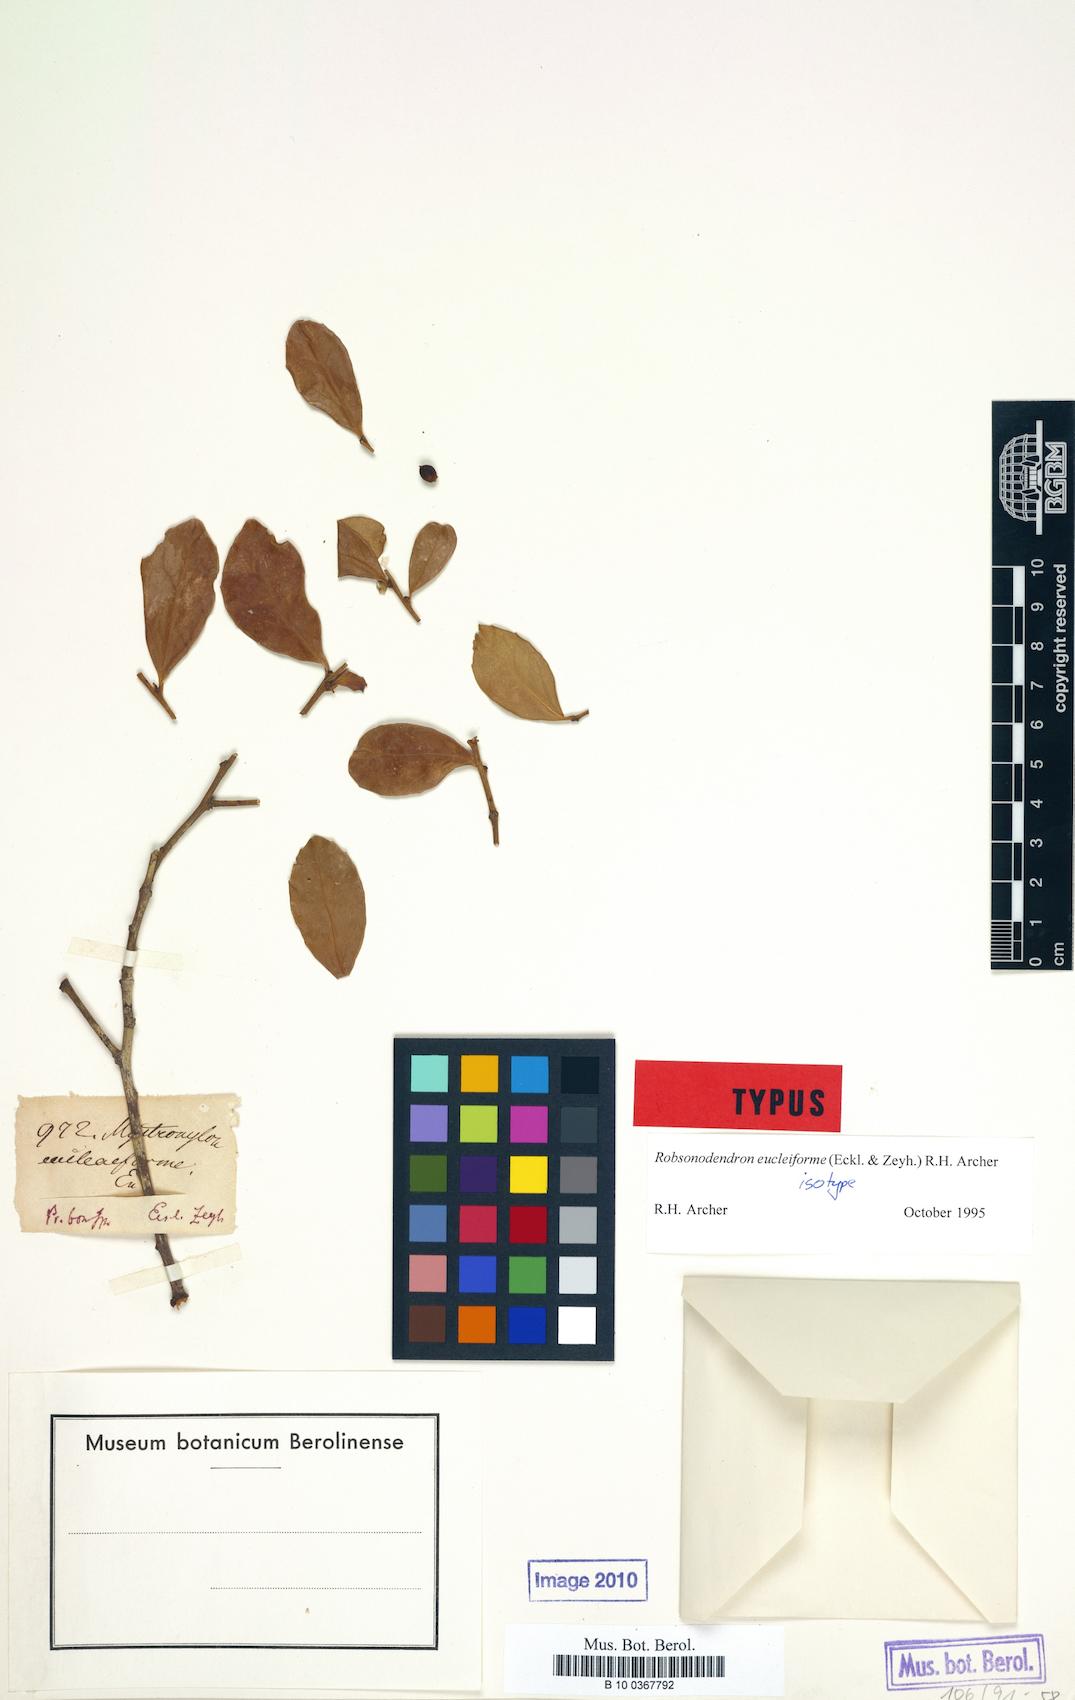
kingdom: Plantae
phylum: Tracheophyta
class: Magnoliopsida
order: Celastrales
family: Celastraceae
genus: Robsonodendron
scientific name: Robsonodendron eucleiforme
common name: Mock silky-bark
